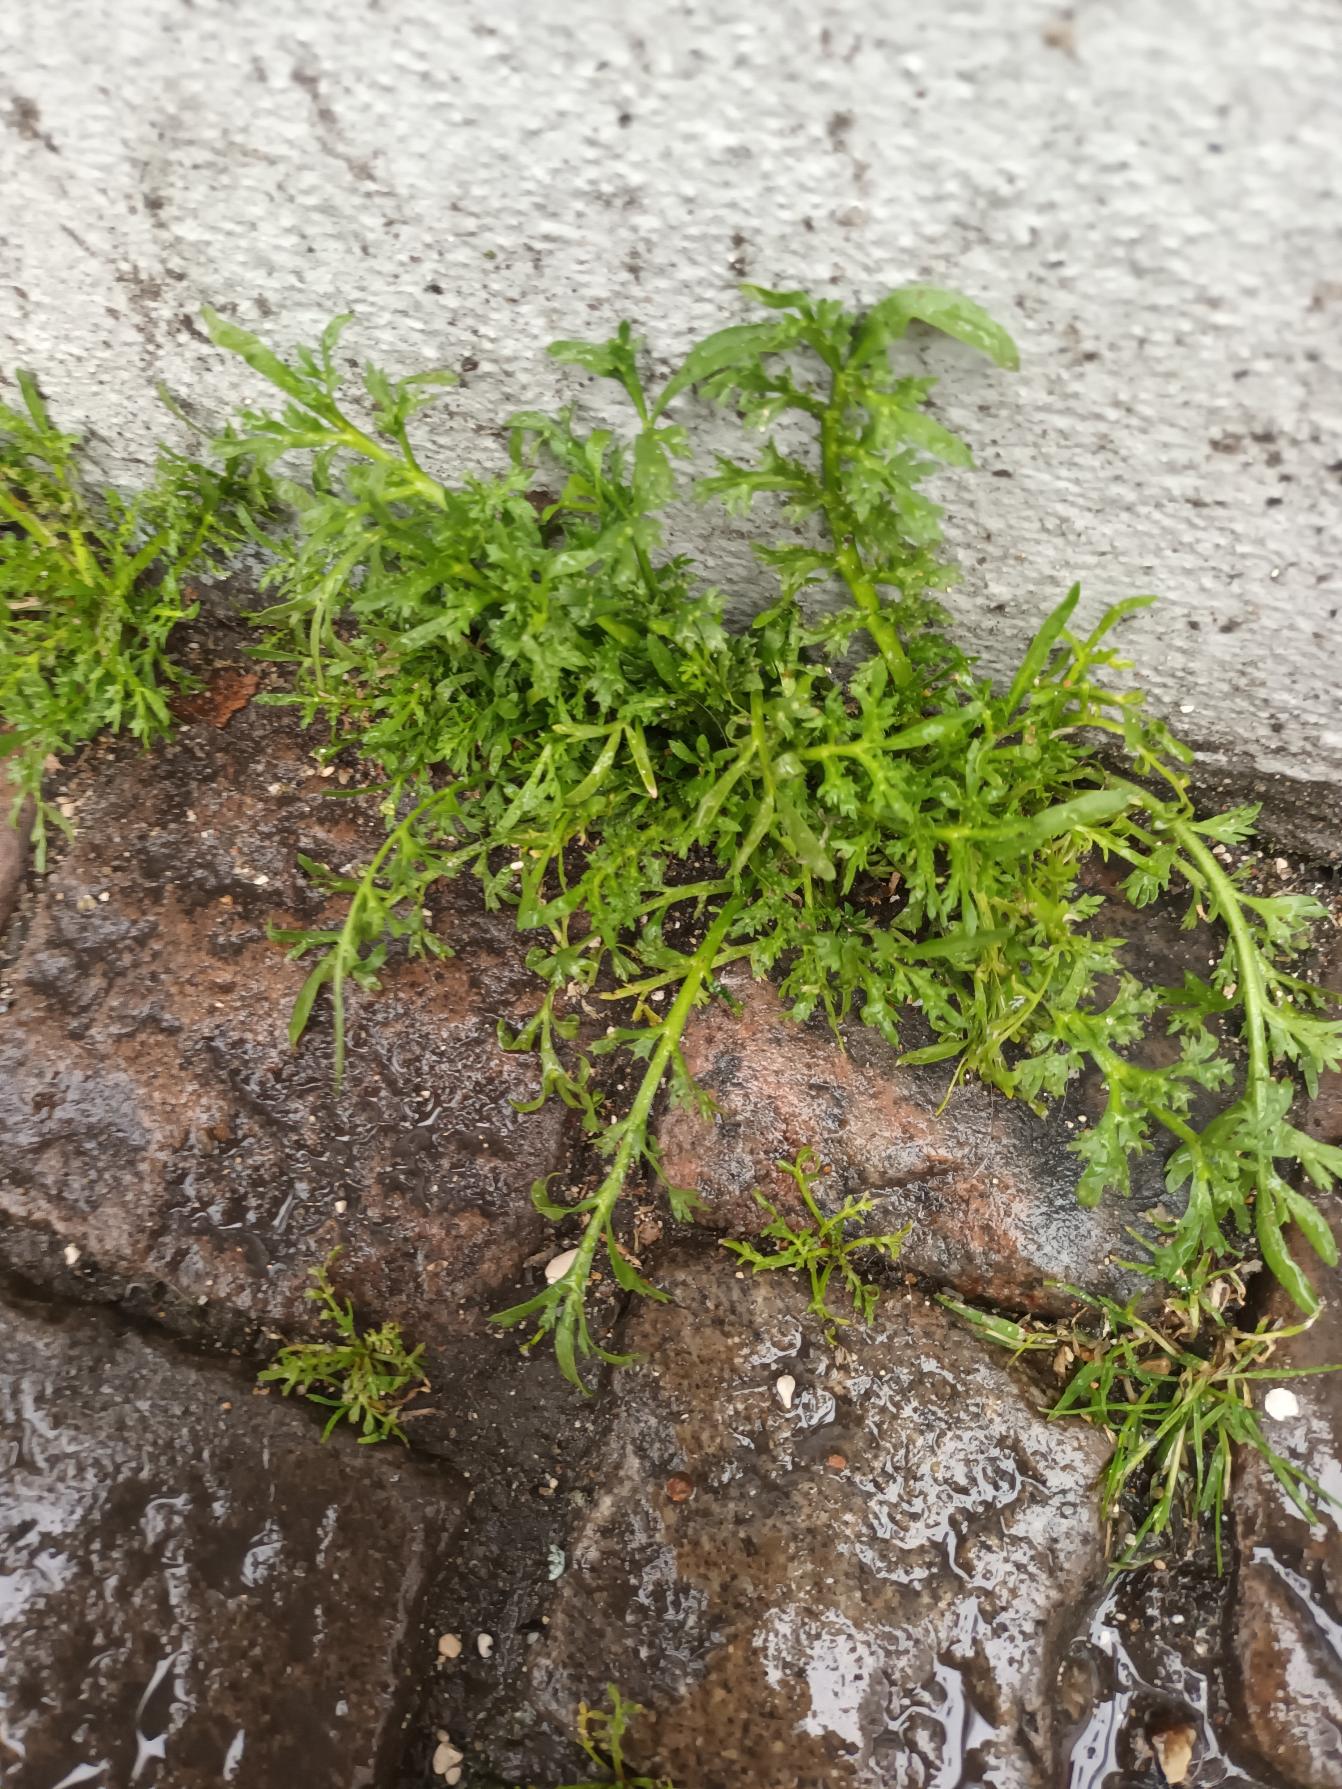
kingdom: Plantae
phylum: Tracheophyta
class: Magnoliopsida
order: Brassicales
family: Brassicaceae
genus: Lepidium
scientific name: Lepidium coronopus
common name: Ravnefod
